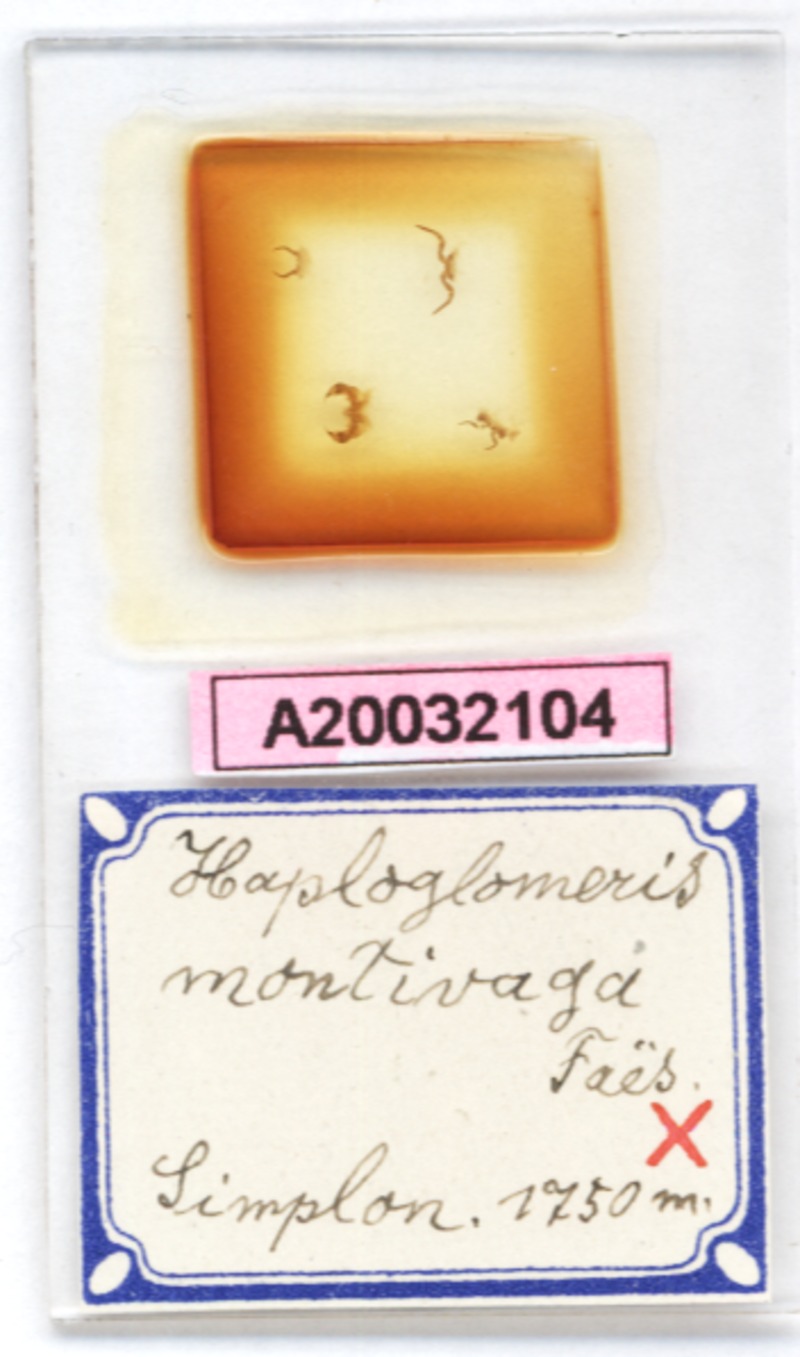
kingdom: Animalia
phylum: Arthropoda
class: Diplopoda
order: Glomerida
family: Glomeridae
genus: Simplomeris
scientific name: Simplomeris montivaga
